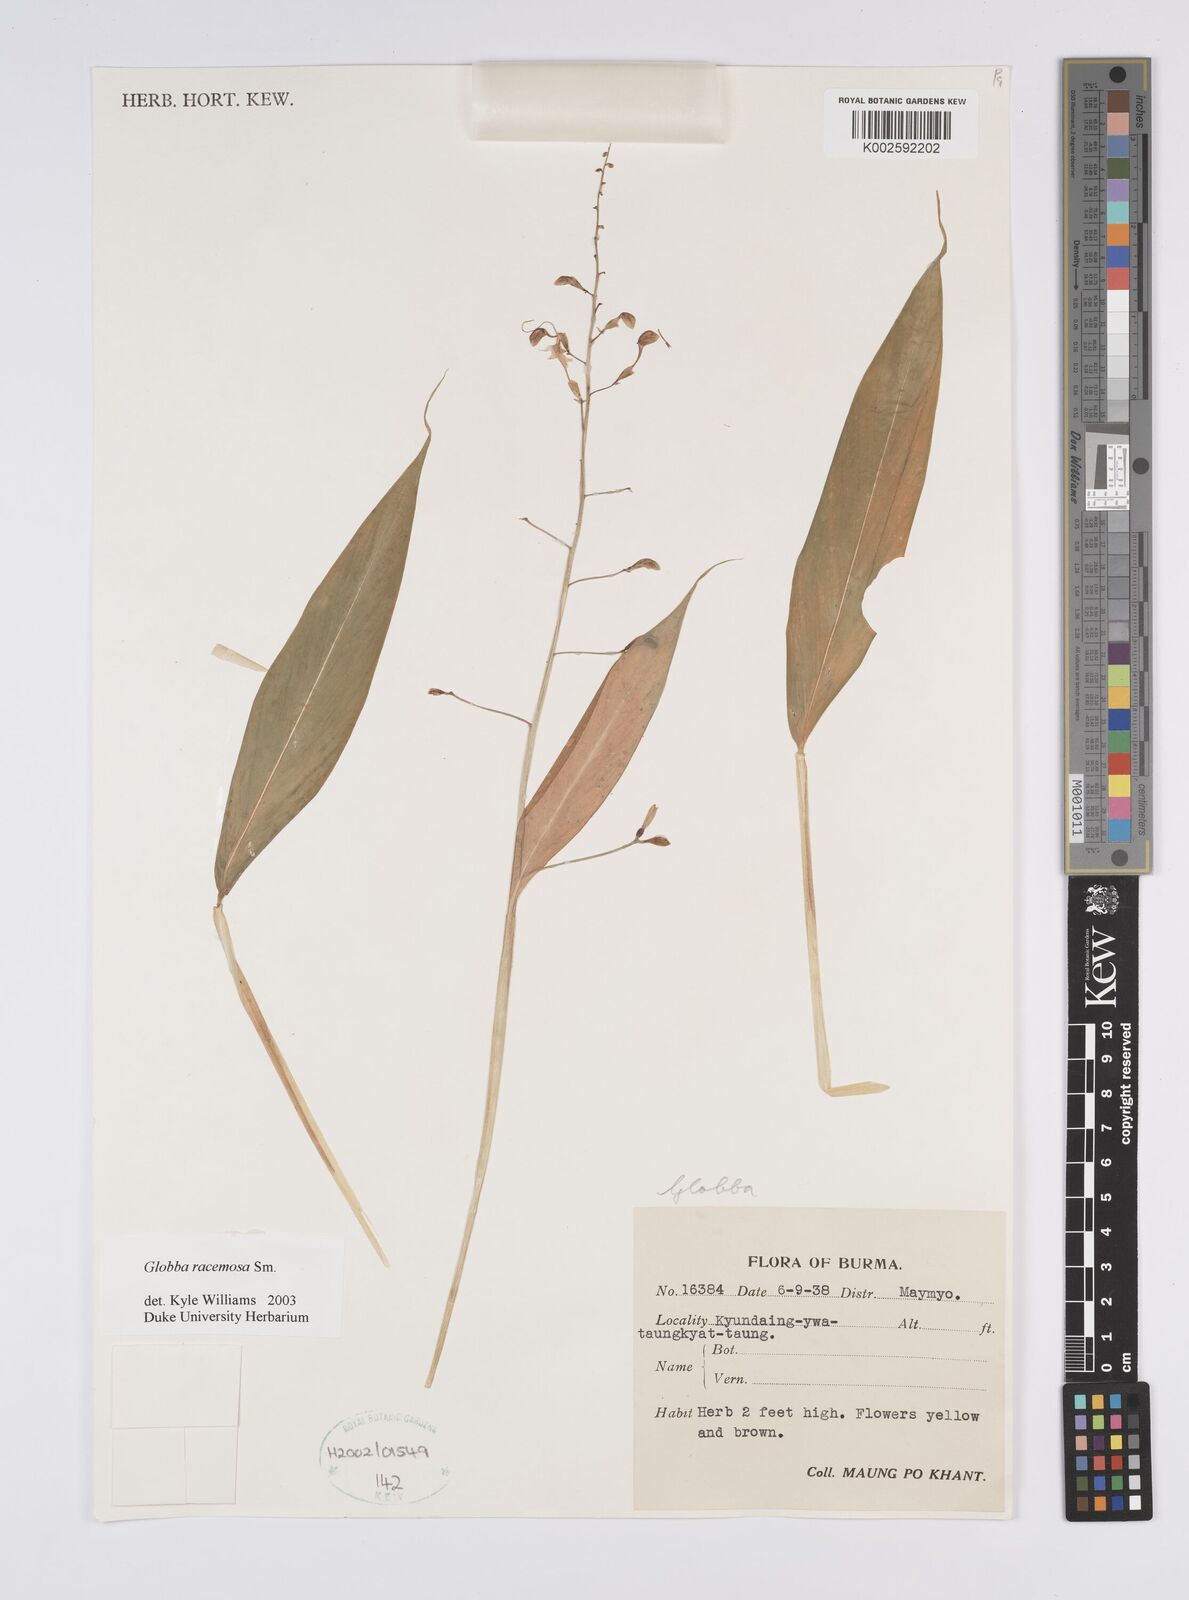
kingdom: Plantae
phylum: Tracheophyta
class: Liliopsida
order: Zingiberales
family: Zingiberaceae
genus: Globba
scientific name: Globba racemosa
